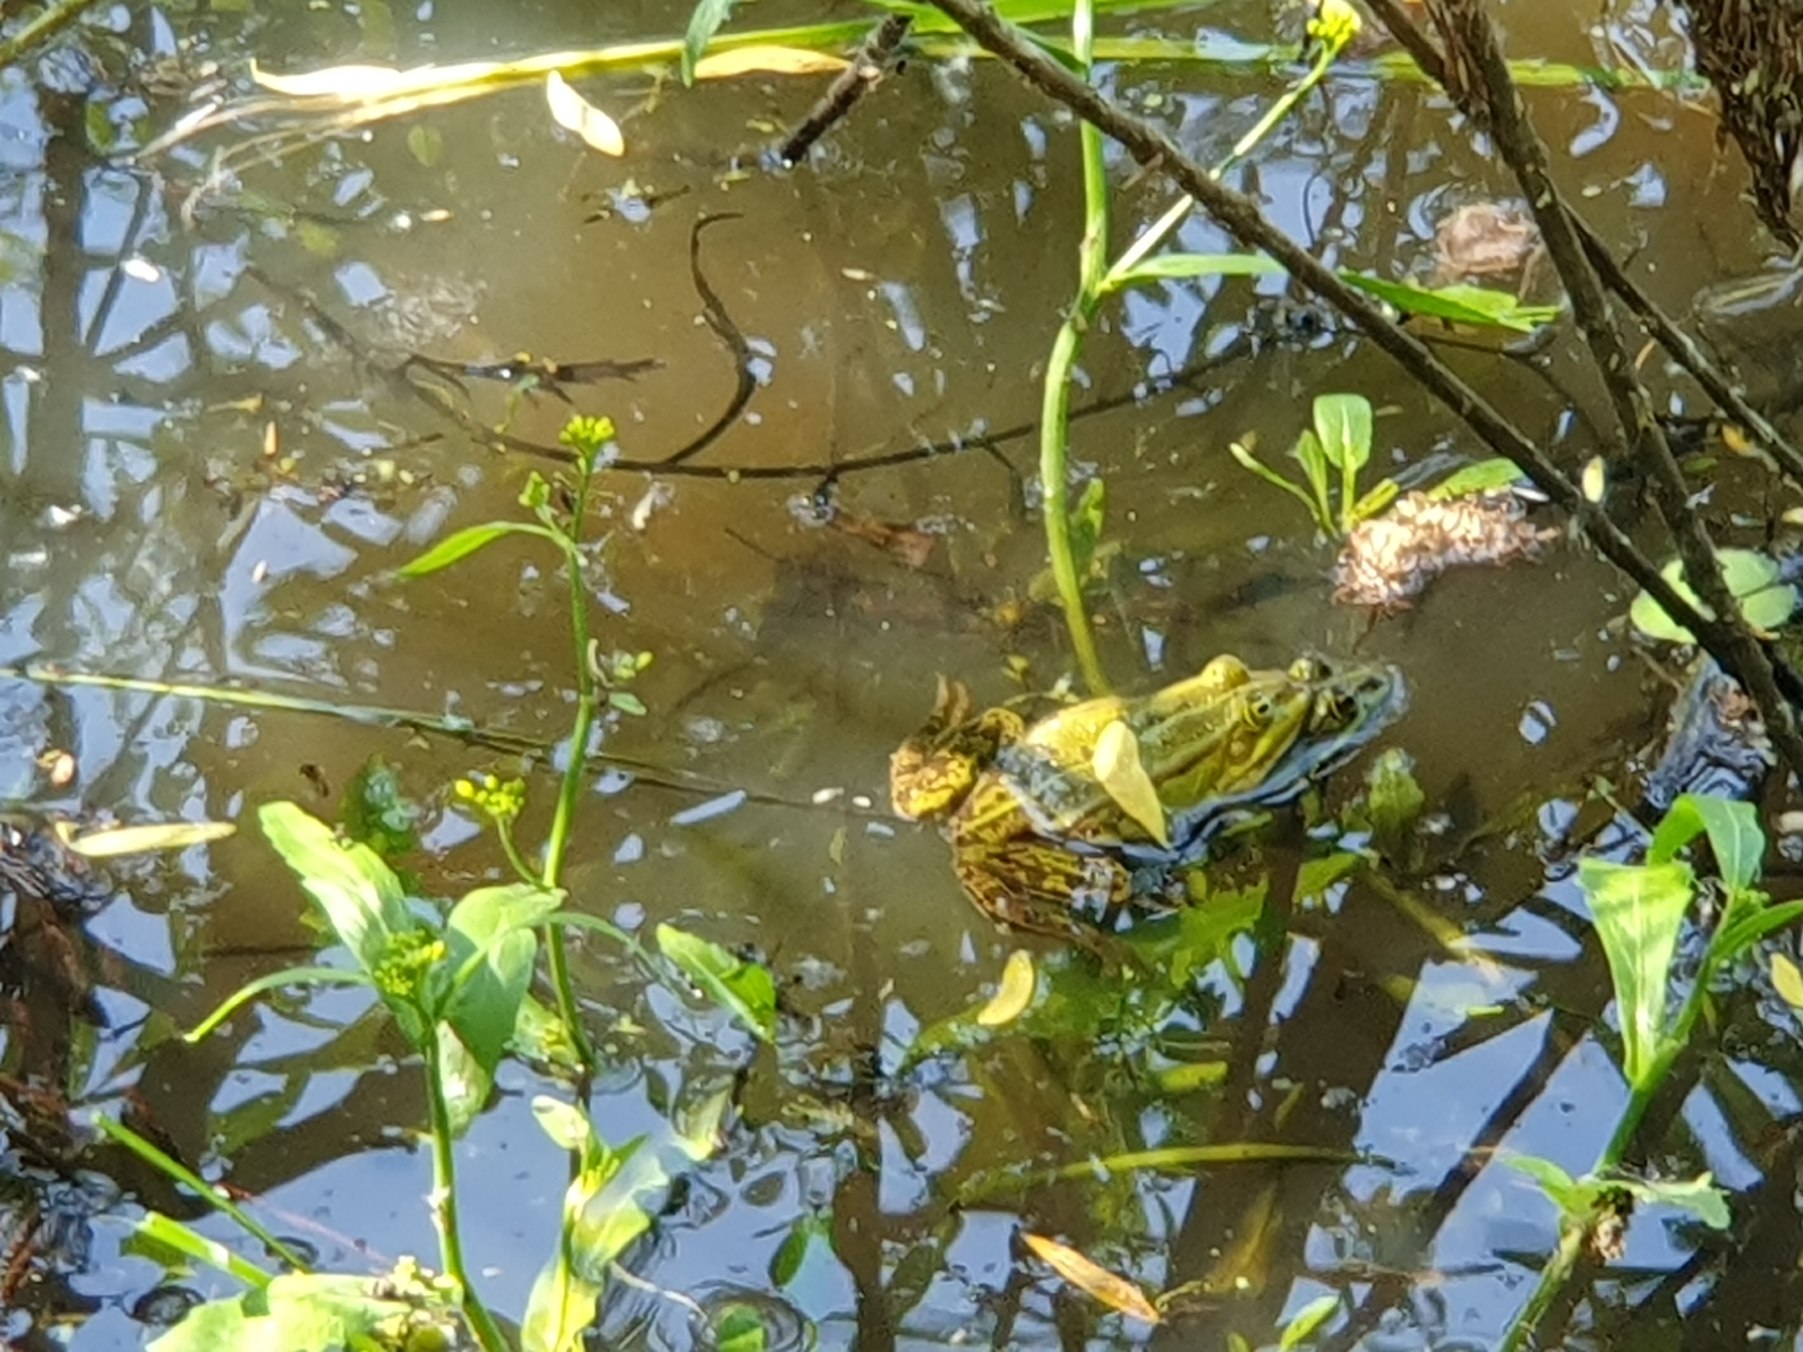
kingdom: Animalia
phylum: Chordata
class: Amphibia
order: Anura
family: Ranidae
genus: Pelophylax
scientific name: Pelophylax lessonae
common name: Grøn frø
